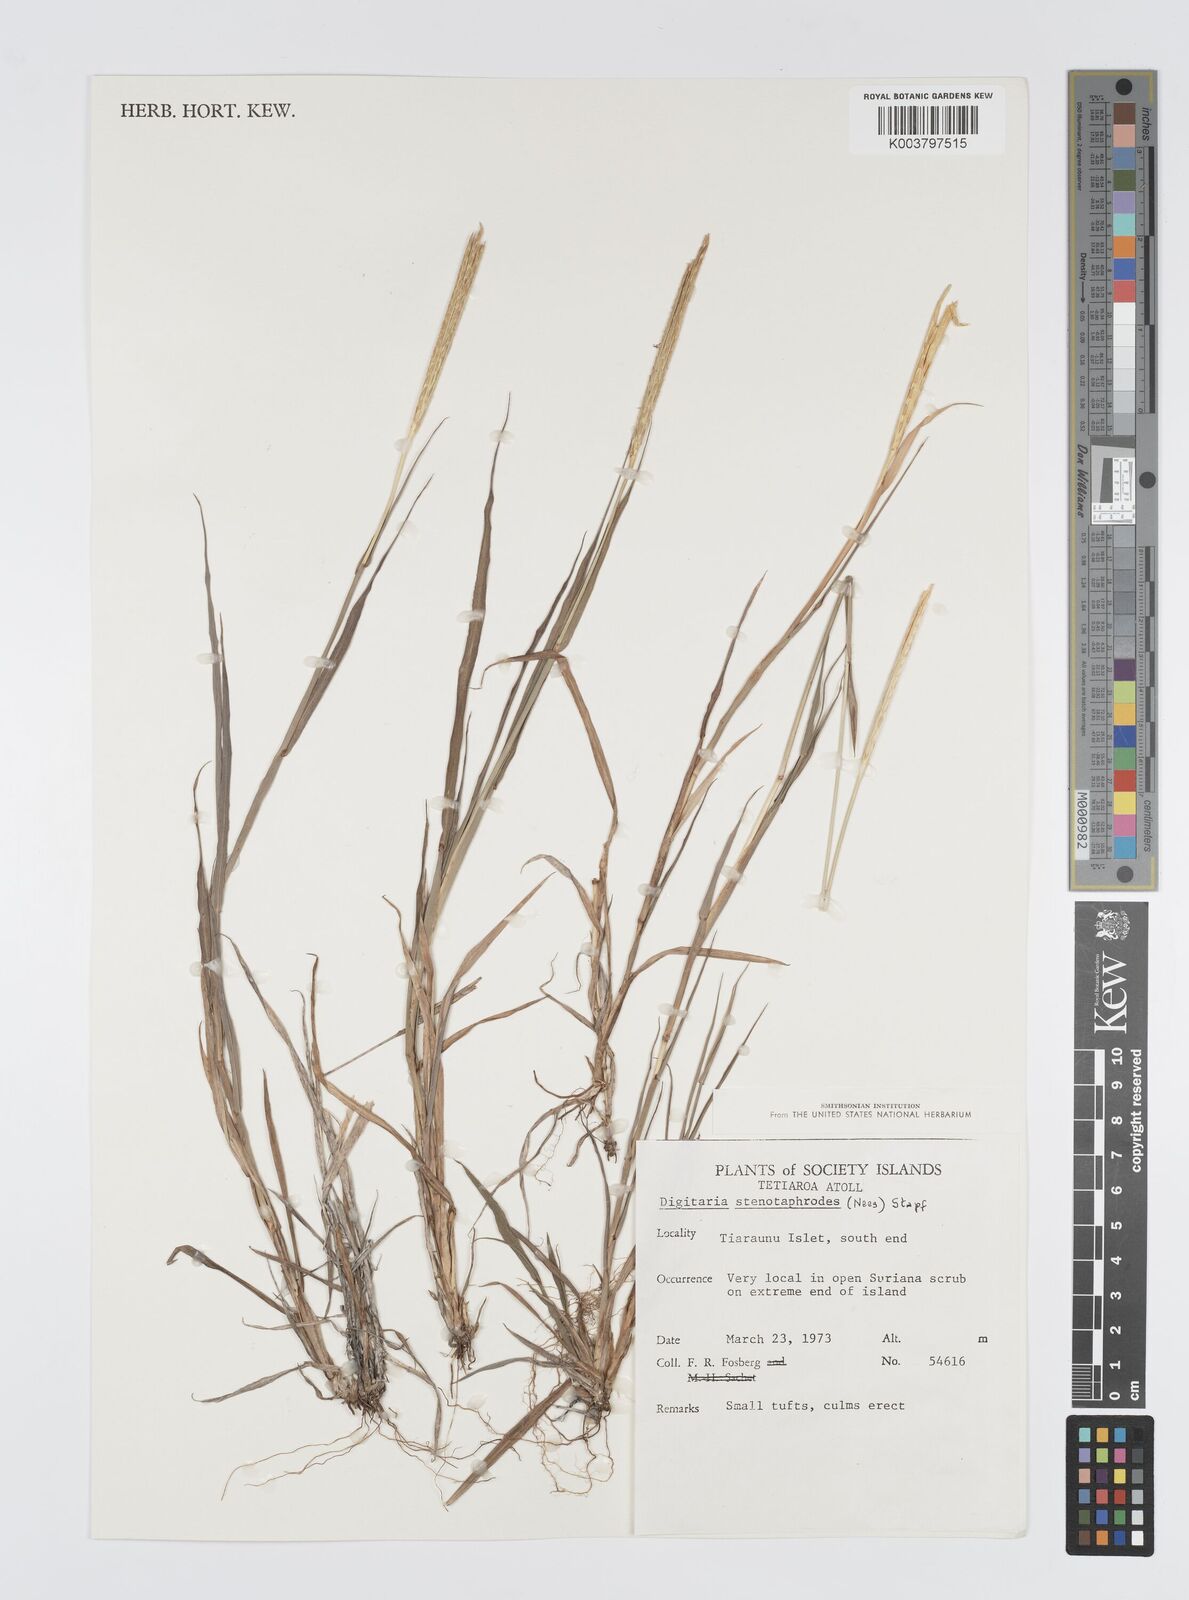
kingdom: Plantae
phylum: Tracheophyta
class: Liliopsida
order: Poales
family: Poaceae
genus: Digitaria
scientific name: Digitaria stenotaphrodes
